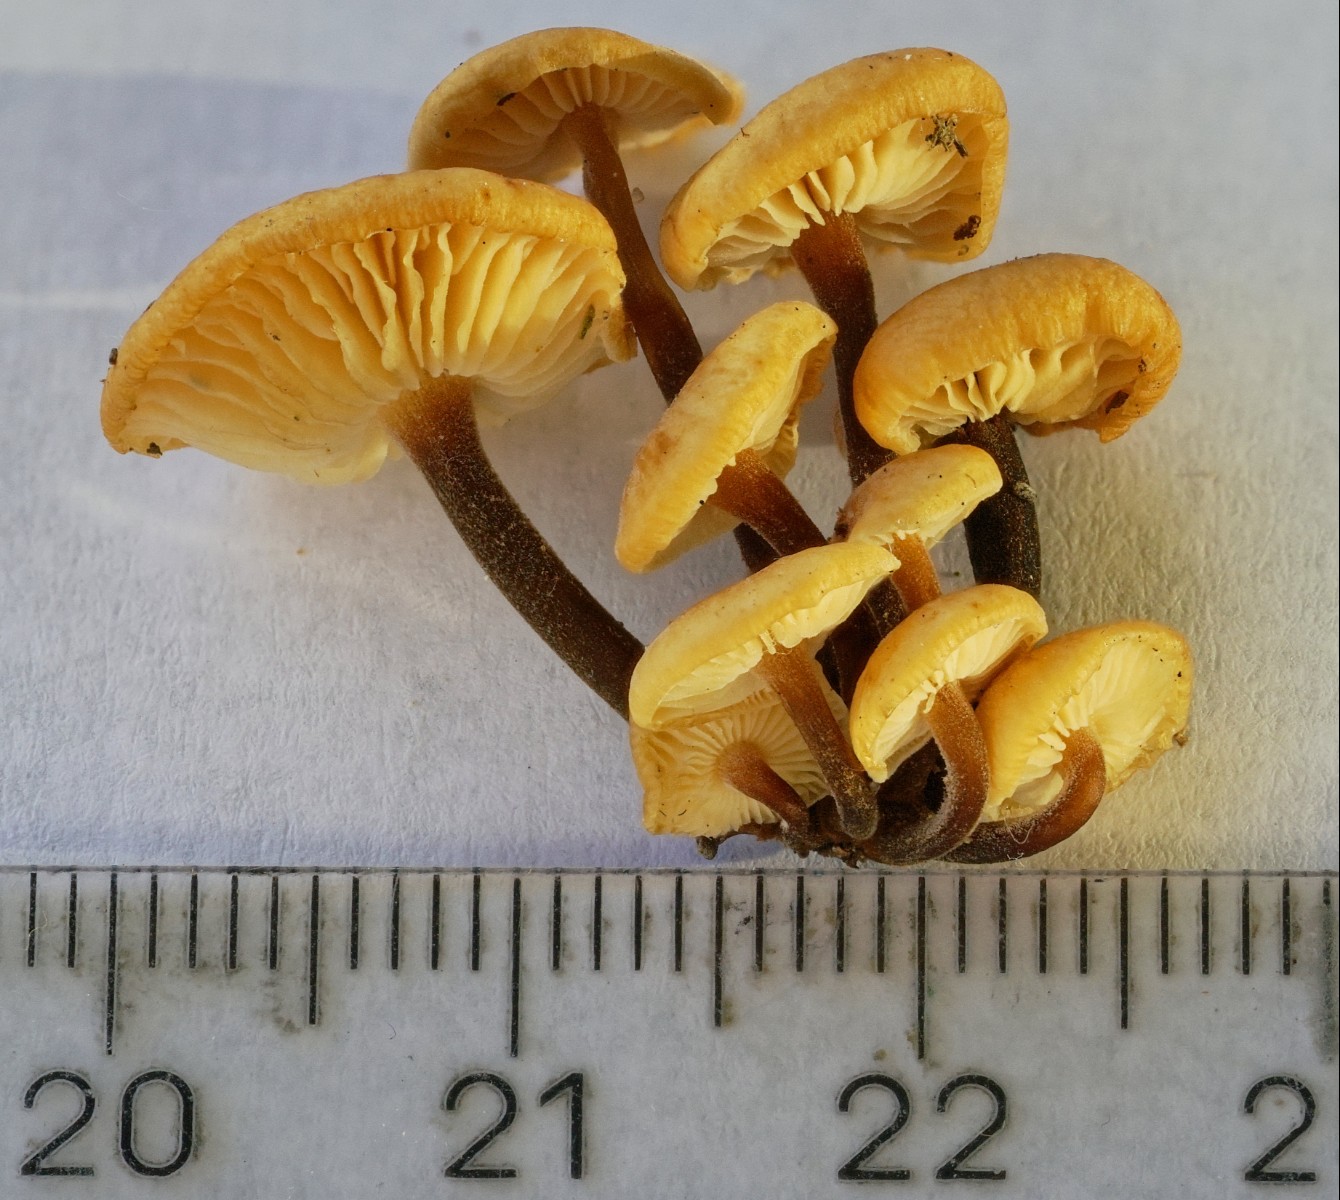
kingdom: Fungi
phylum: Basidiomycota
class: Agaricomycetes
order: Agaricales
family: Physalacriaceae
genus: Flammulina
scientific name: Flammulina velutipes
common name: gul fløjlsfod
